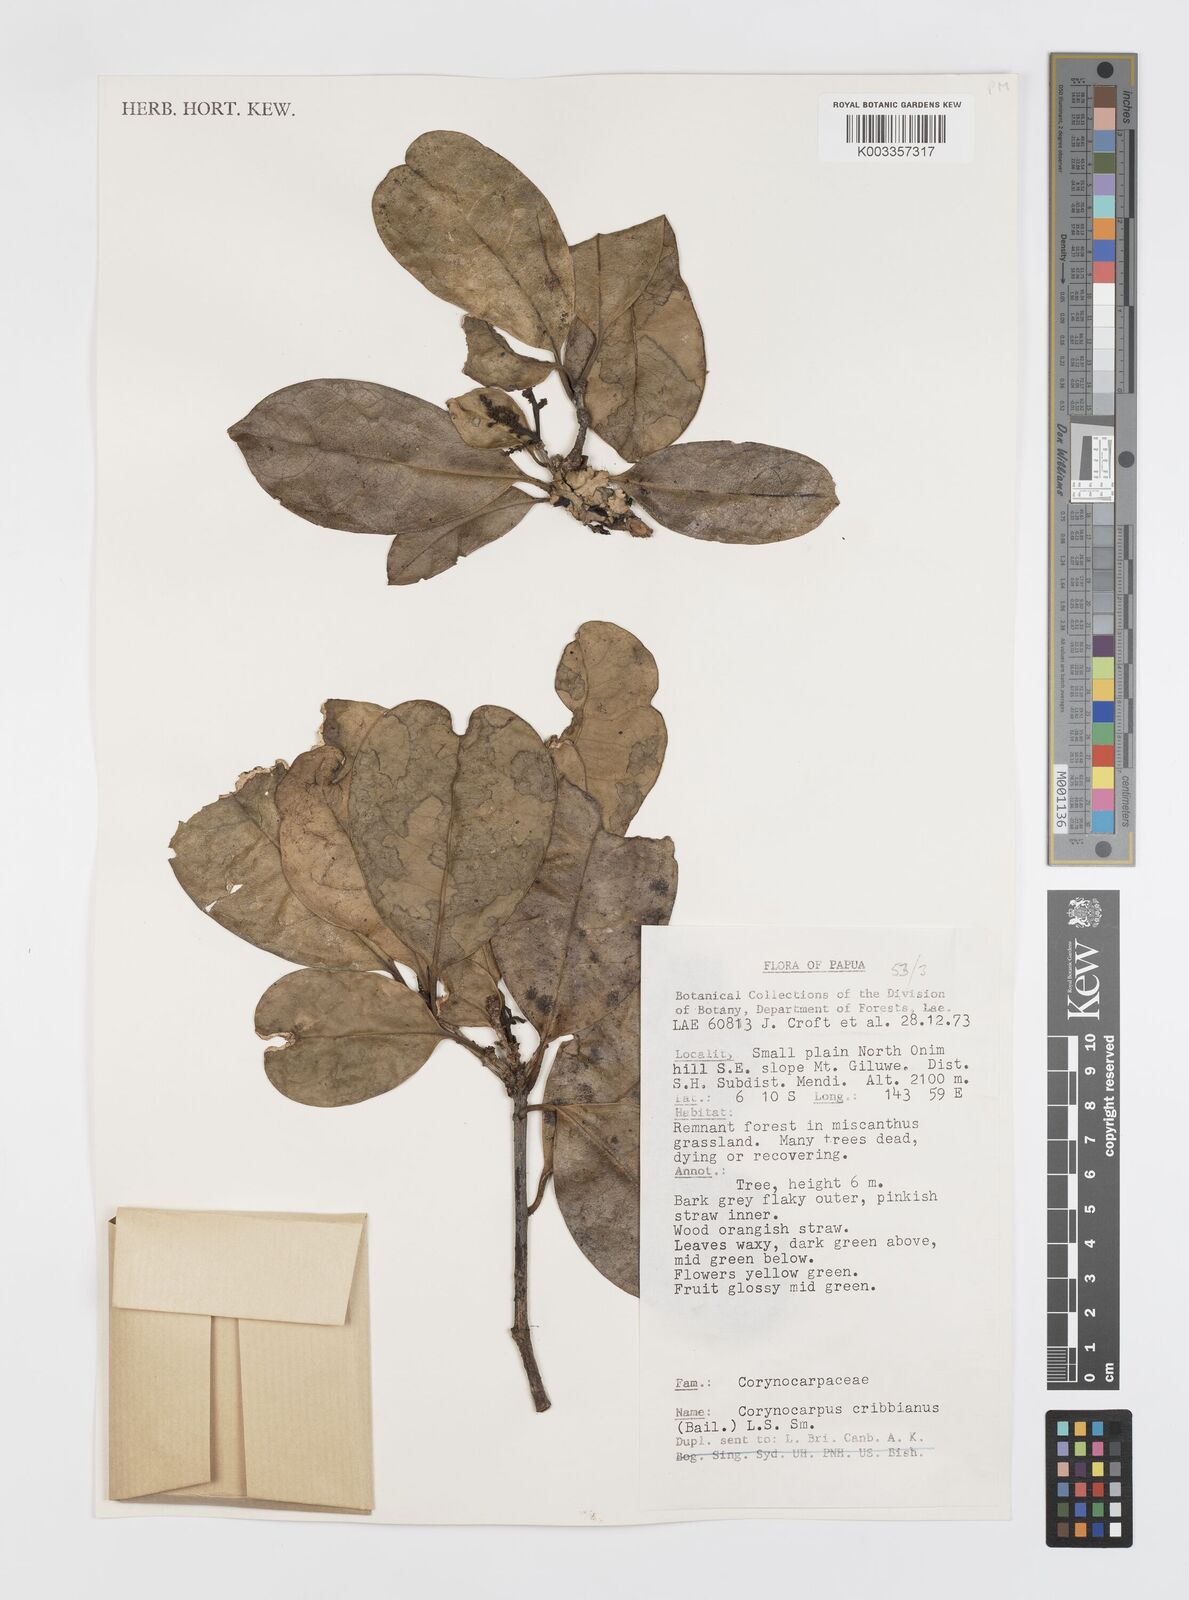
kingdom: Plantae
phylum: Tracheophyta
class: Magnoliopsida
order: Cucurbitales
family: Corynocarpaceae
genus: Corynocarpus
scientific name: Corynocarpus cribbianus
